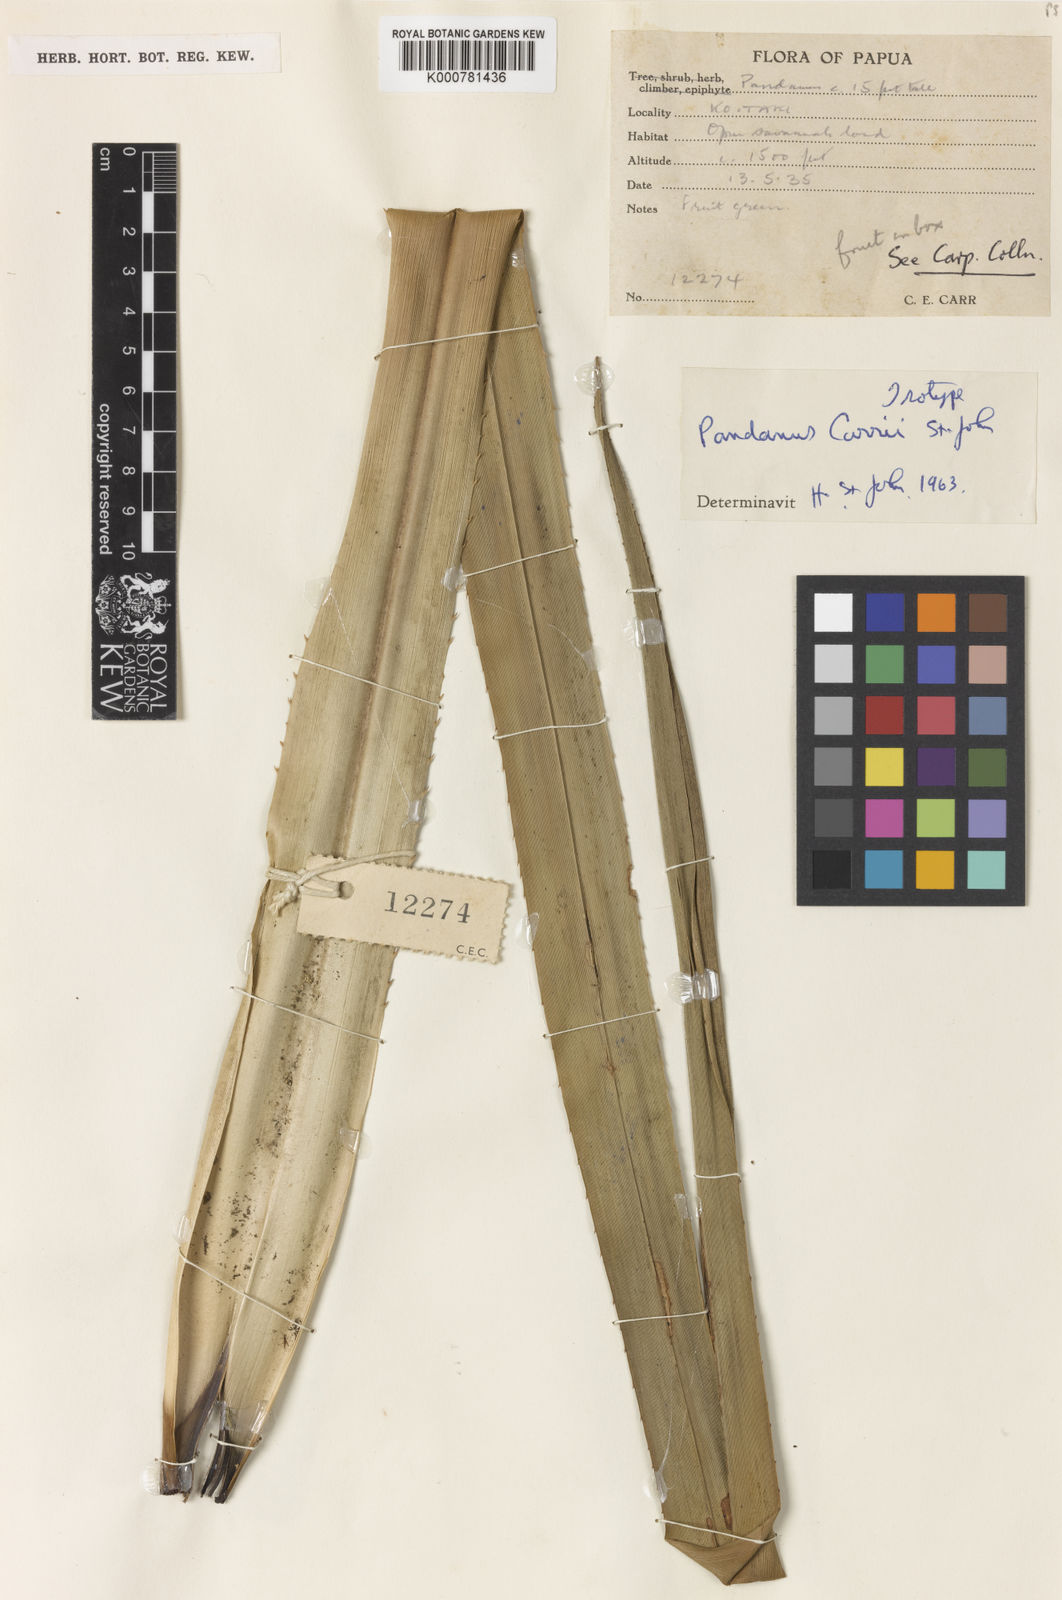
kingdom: Plantae
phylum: Tracheophyta
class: Liliopsida
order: Pandanales
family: Pandanaceae
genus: Pandanus
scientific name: Pandanus carrii
